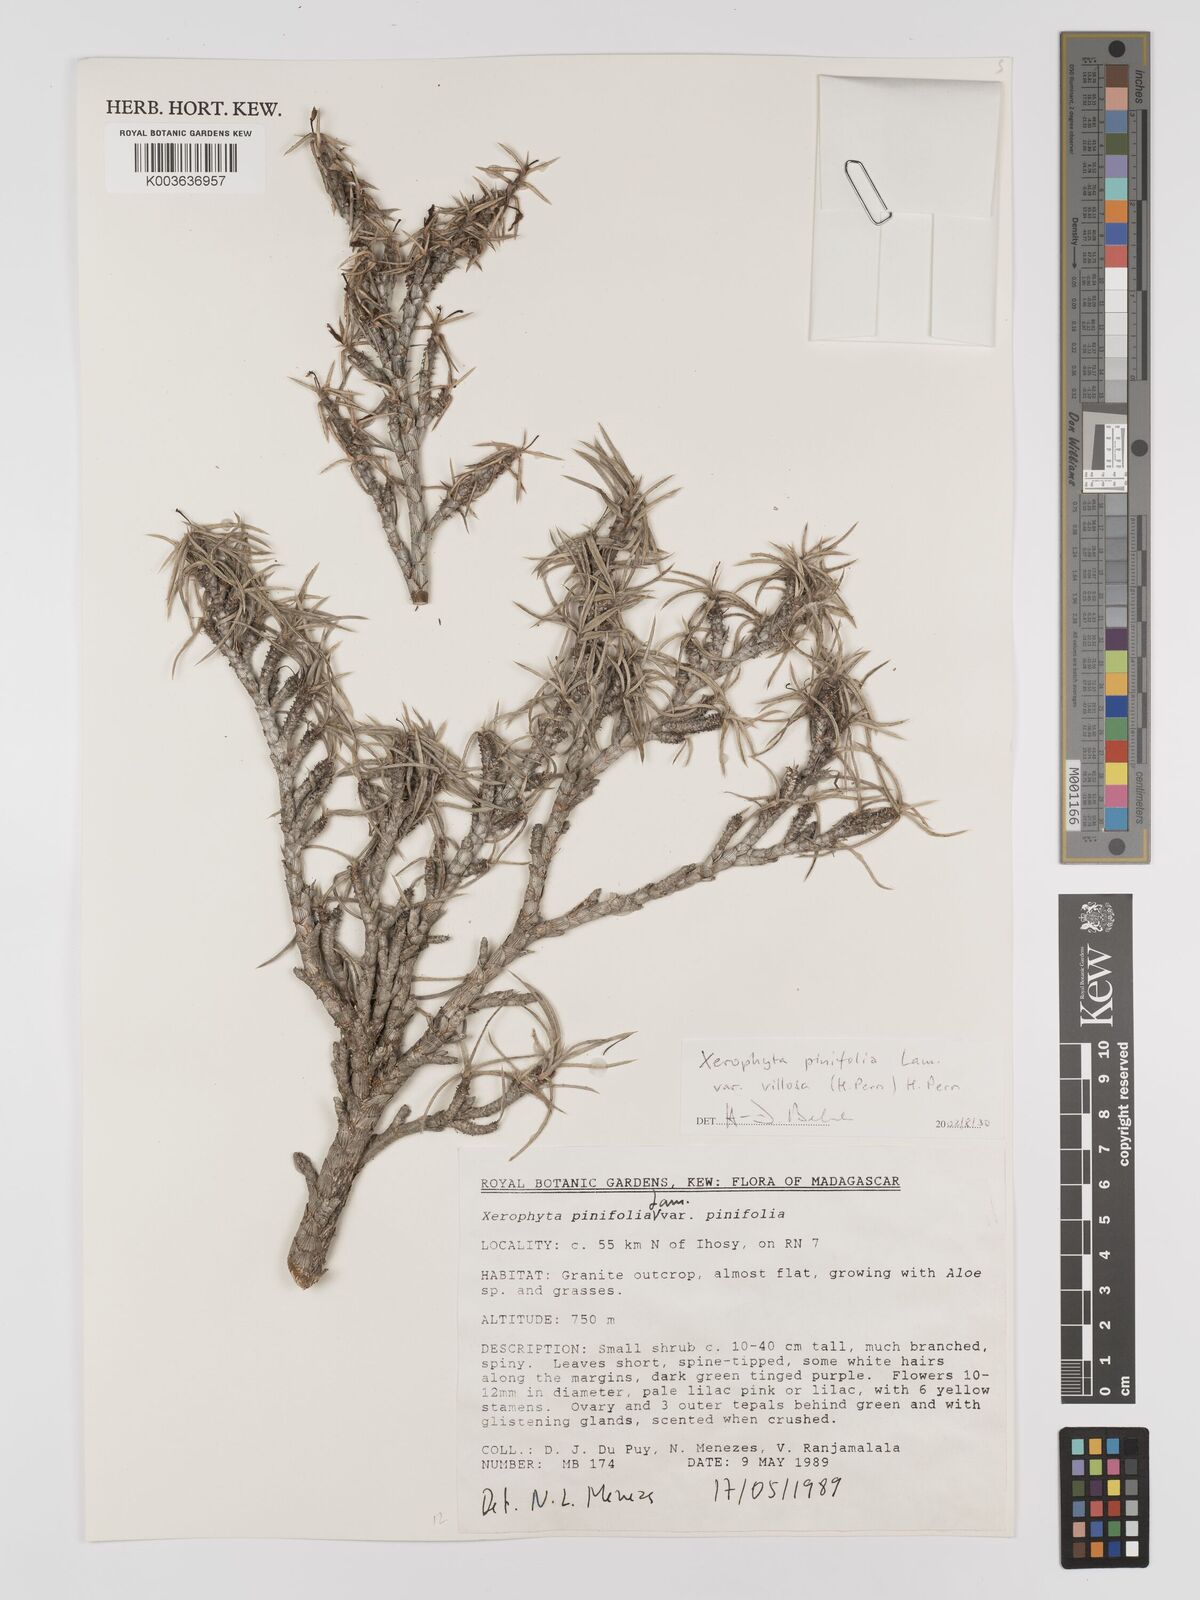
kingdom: Plantae
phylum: Tracheophyta
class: Liliopsida
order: Pandanales
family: Velloziaceae
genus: Xerophyta
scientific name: Xerophyta
